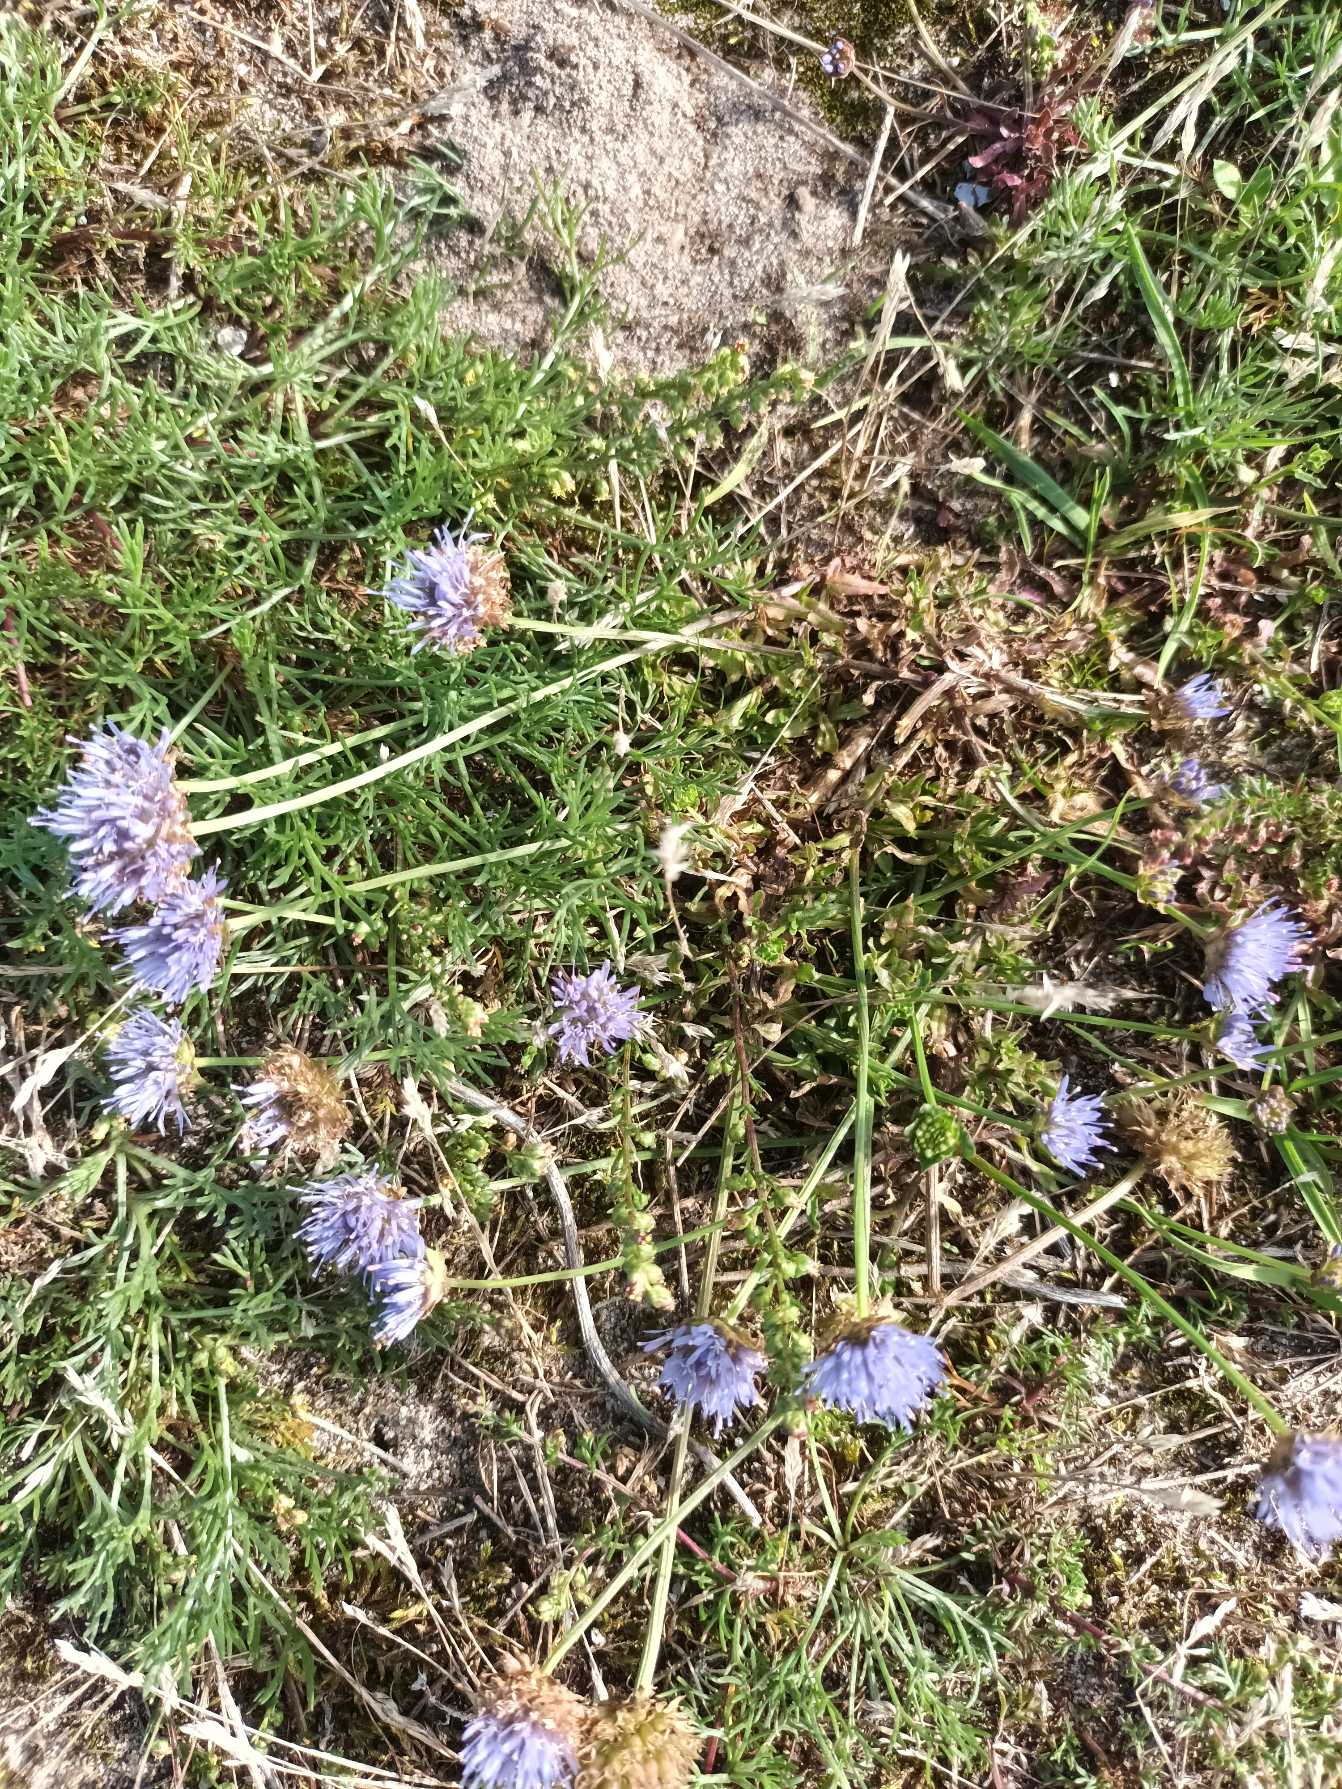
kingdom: Plantae
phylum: Tracheophyta
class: Magnoliopsida
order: Asterales
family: Campanulaceae
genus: Jasione
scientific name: Jasione montana
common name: Blåmunke
